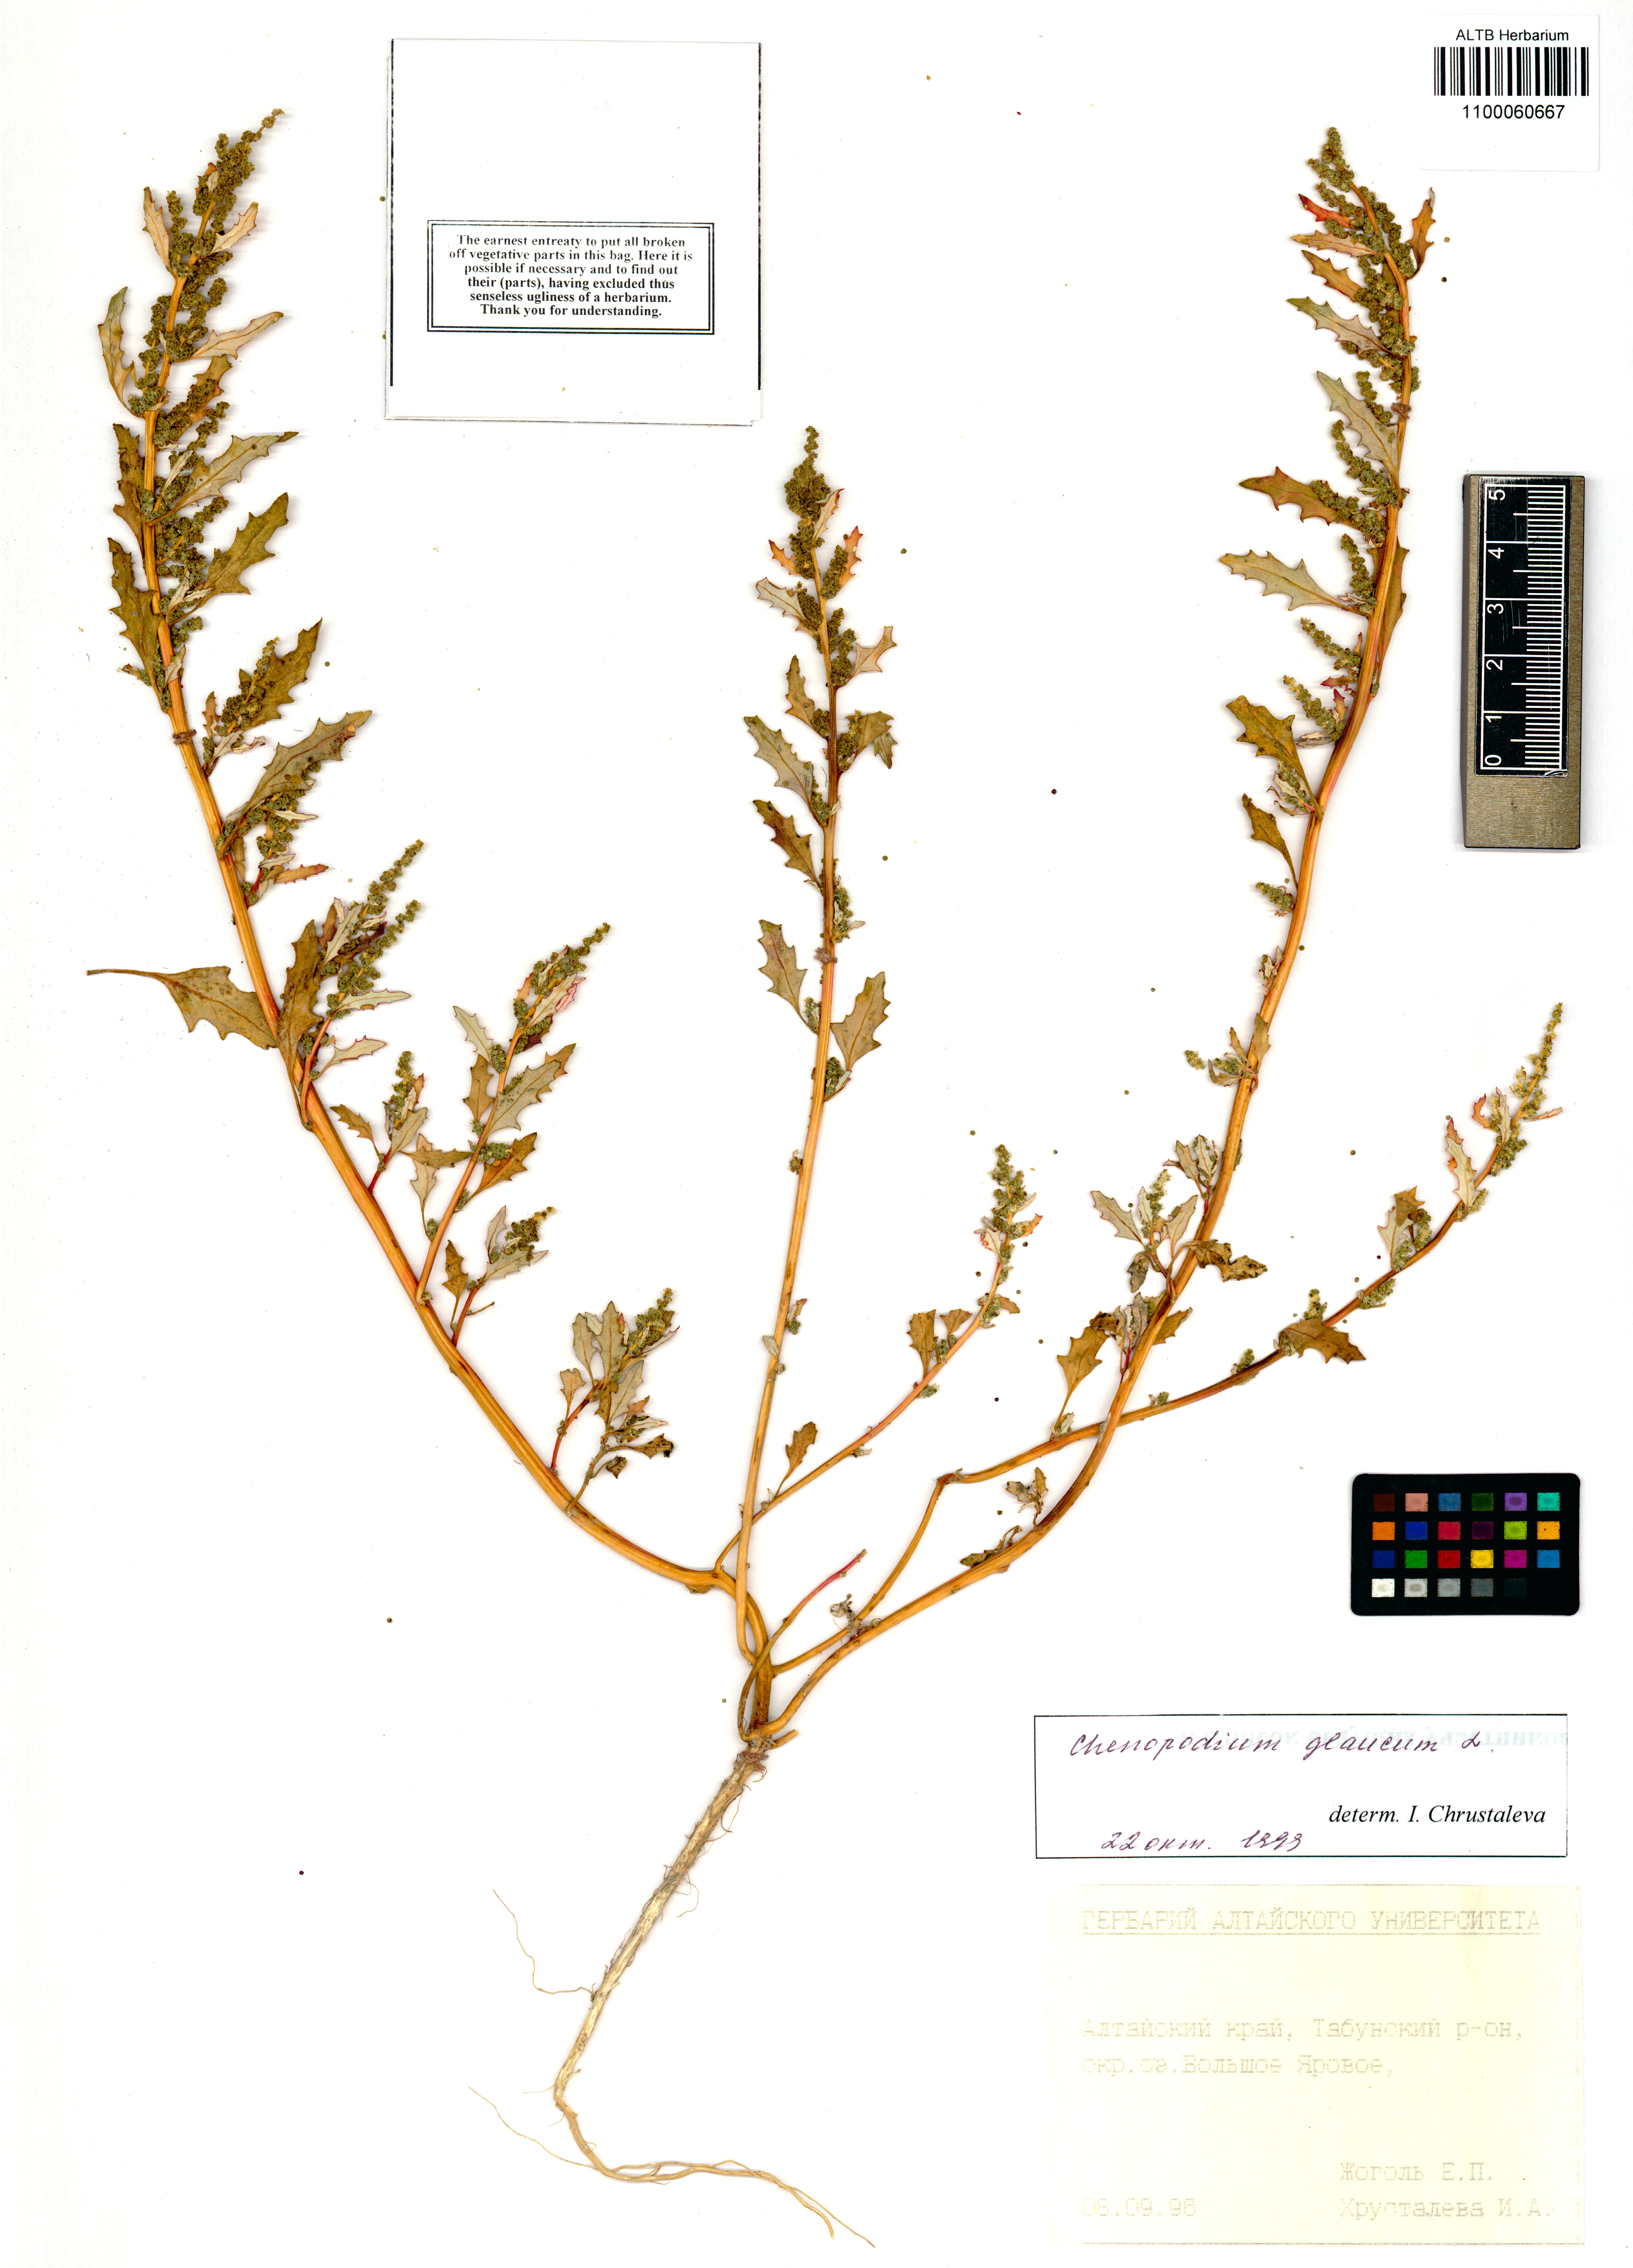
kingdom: Plantae
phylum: Tracheophyta
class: Magnoliopsida
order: Caryophyllales
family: Amaranthaceae
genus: Oxybasis
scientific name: Oxybasis glauca
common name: Glaucous goosefoot
